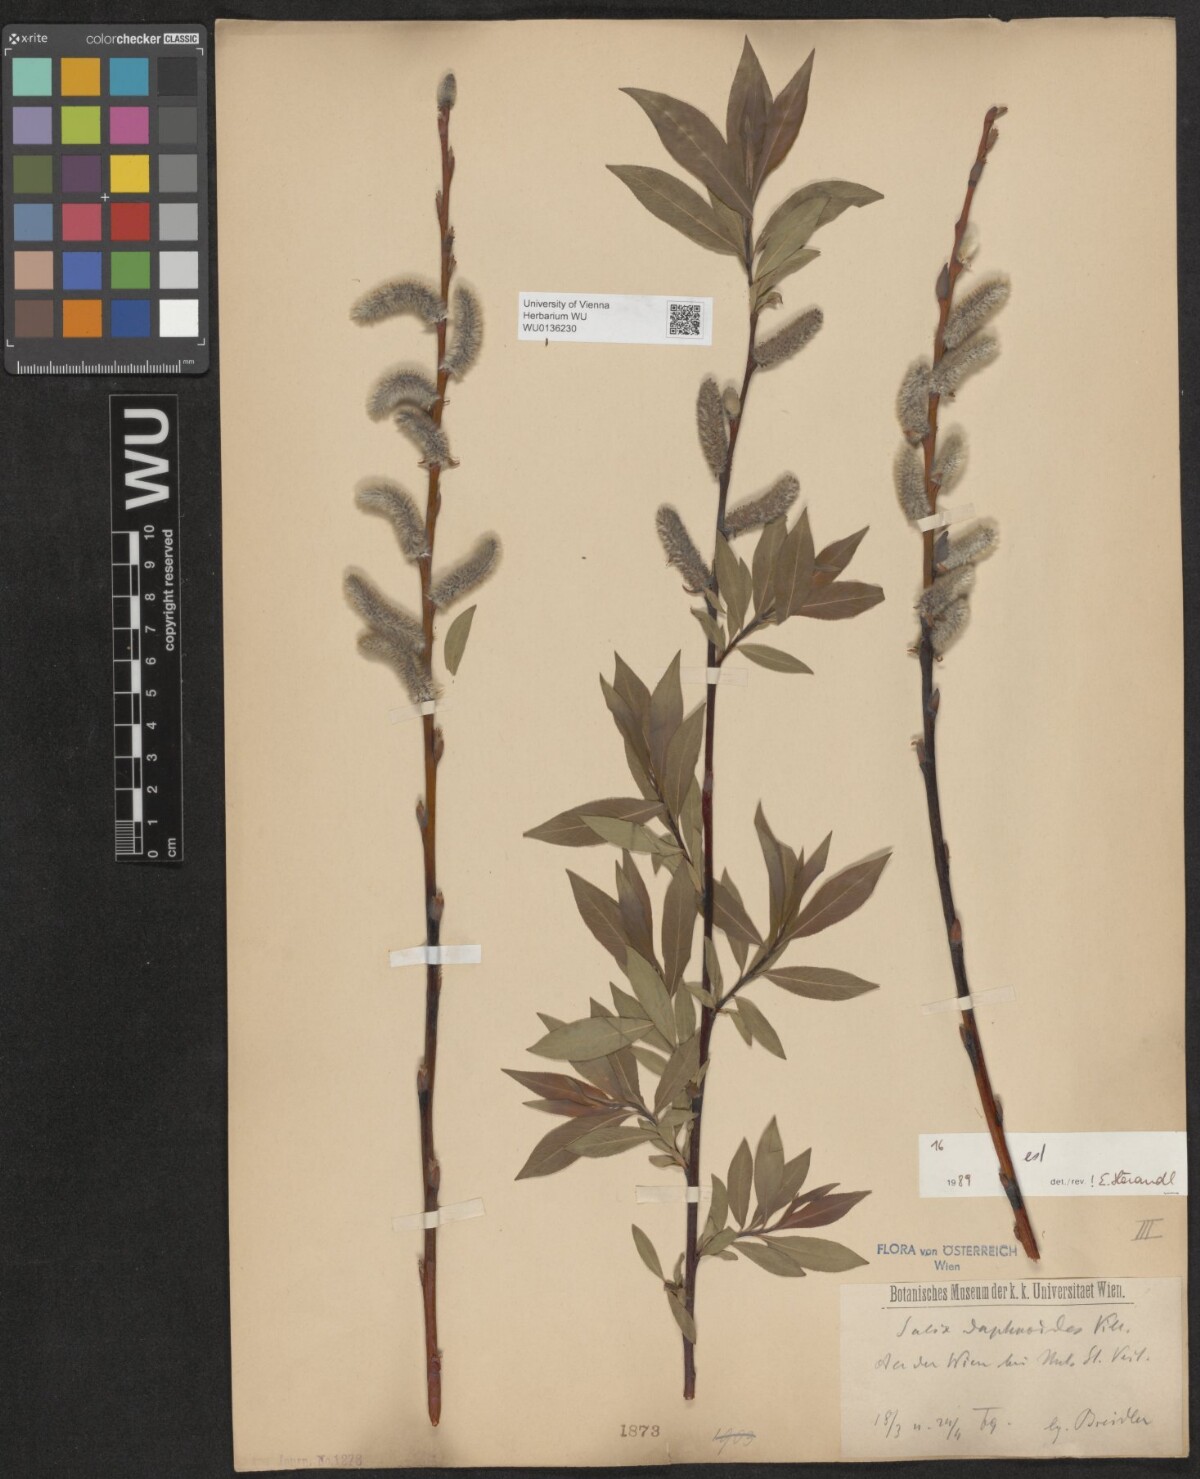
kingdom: Plantae
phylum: Tracheophyta
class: Magnoliopsida
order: Malpighiales
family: Salicaceae
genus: Salix
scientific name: Salix daphnoides
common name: European violet-willow
